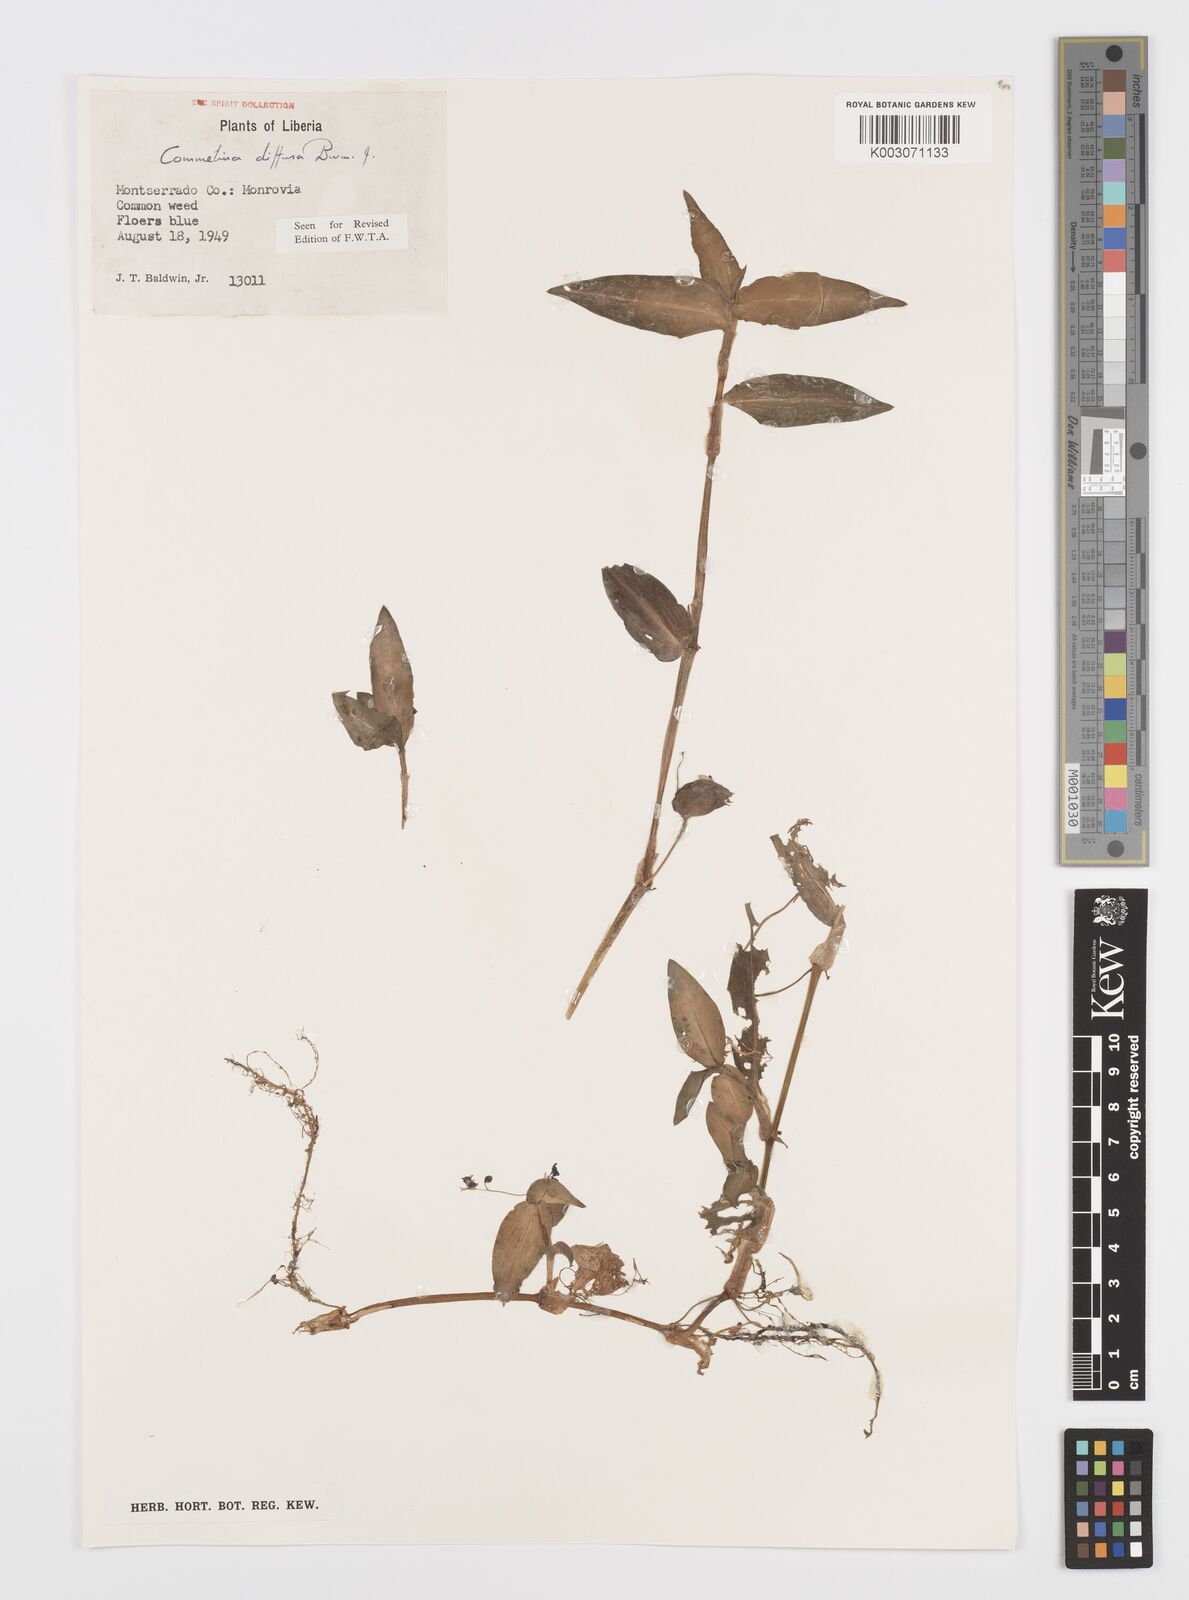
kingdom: Plantae
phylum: Tracheophyta
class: Liliopsida
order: Commelinales
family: Commelinaceae
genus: Commelina
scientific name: Commelina diffusa
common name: Climbing dayflower
